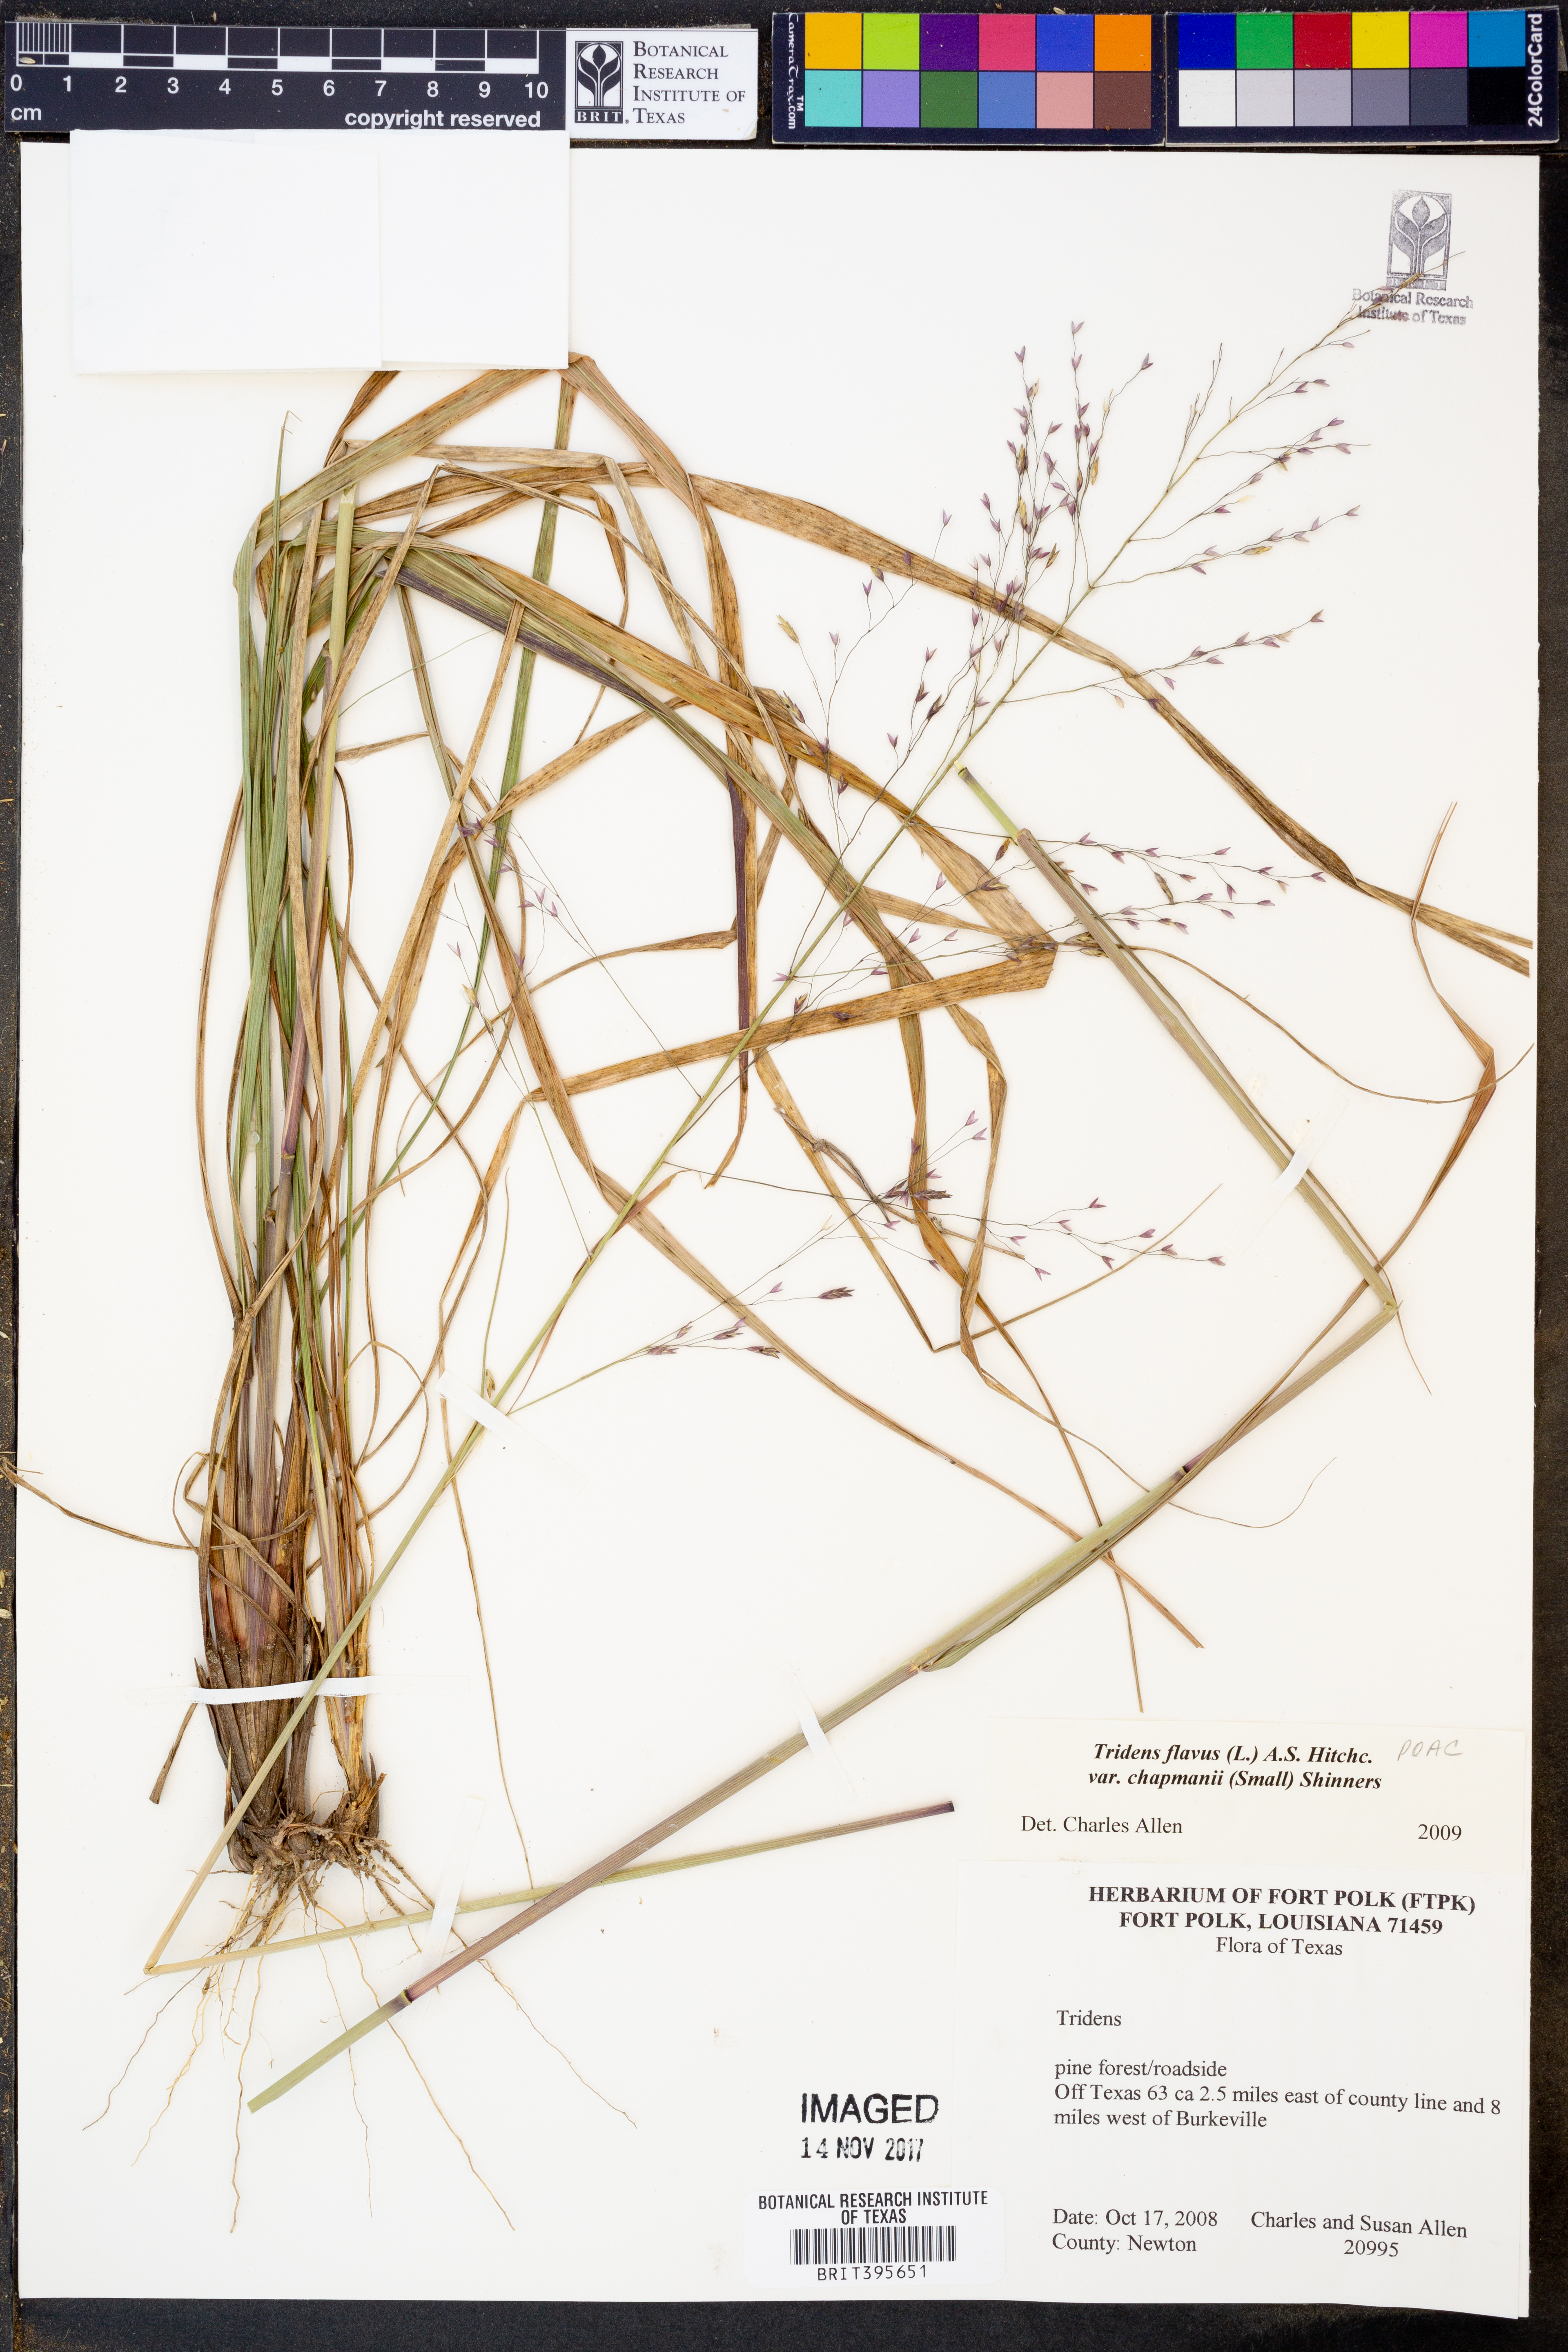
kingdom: Plantae
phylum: Tracheophyta
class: Liliopsida
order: Poales
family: Poaceae
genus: Tridens
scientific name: Tridens chapmanii
